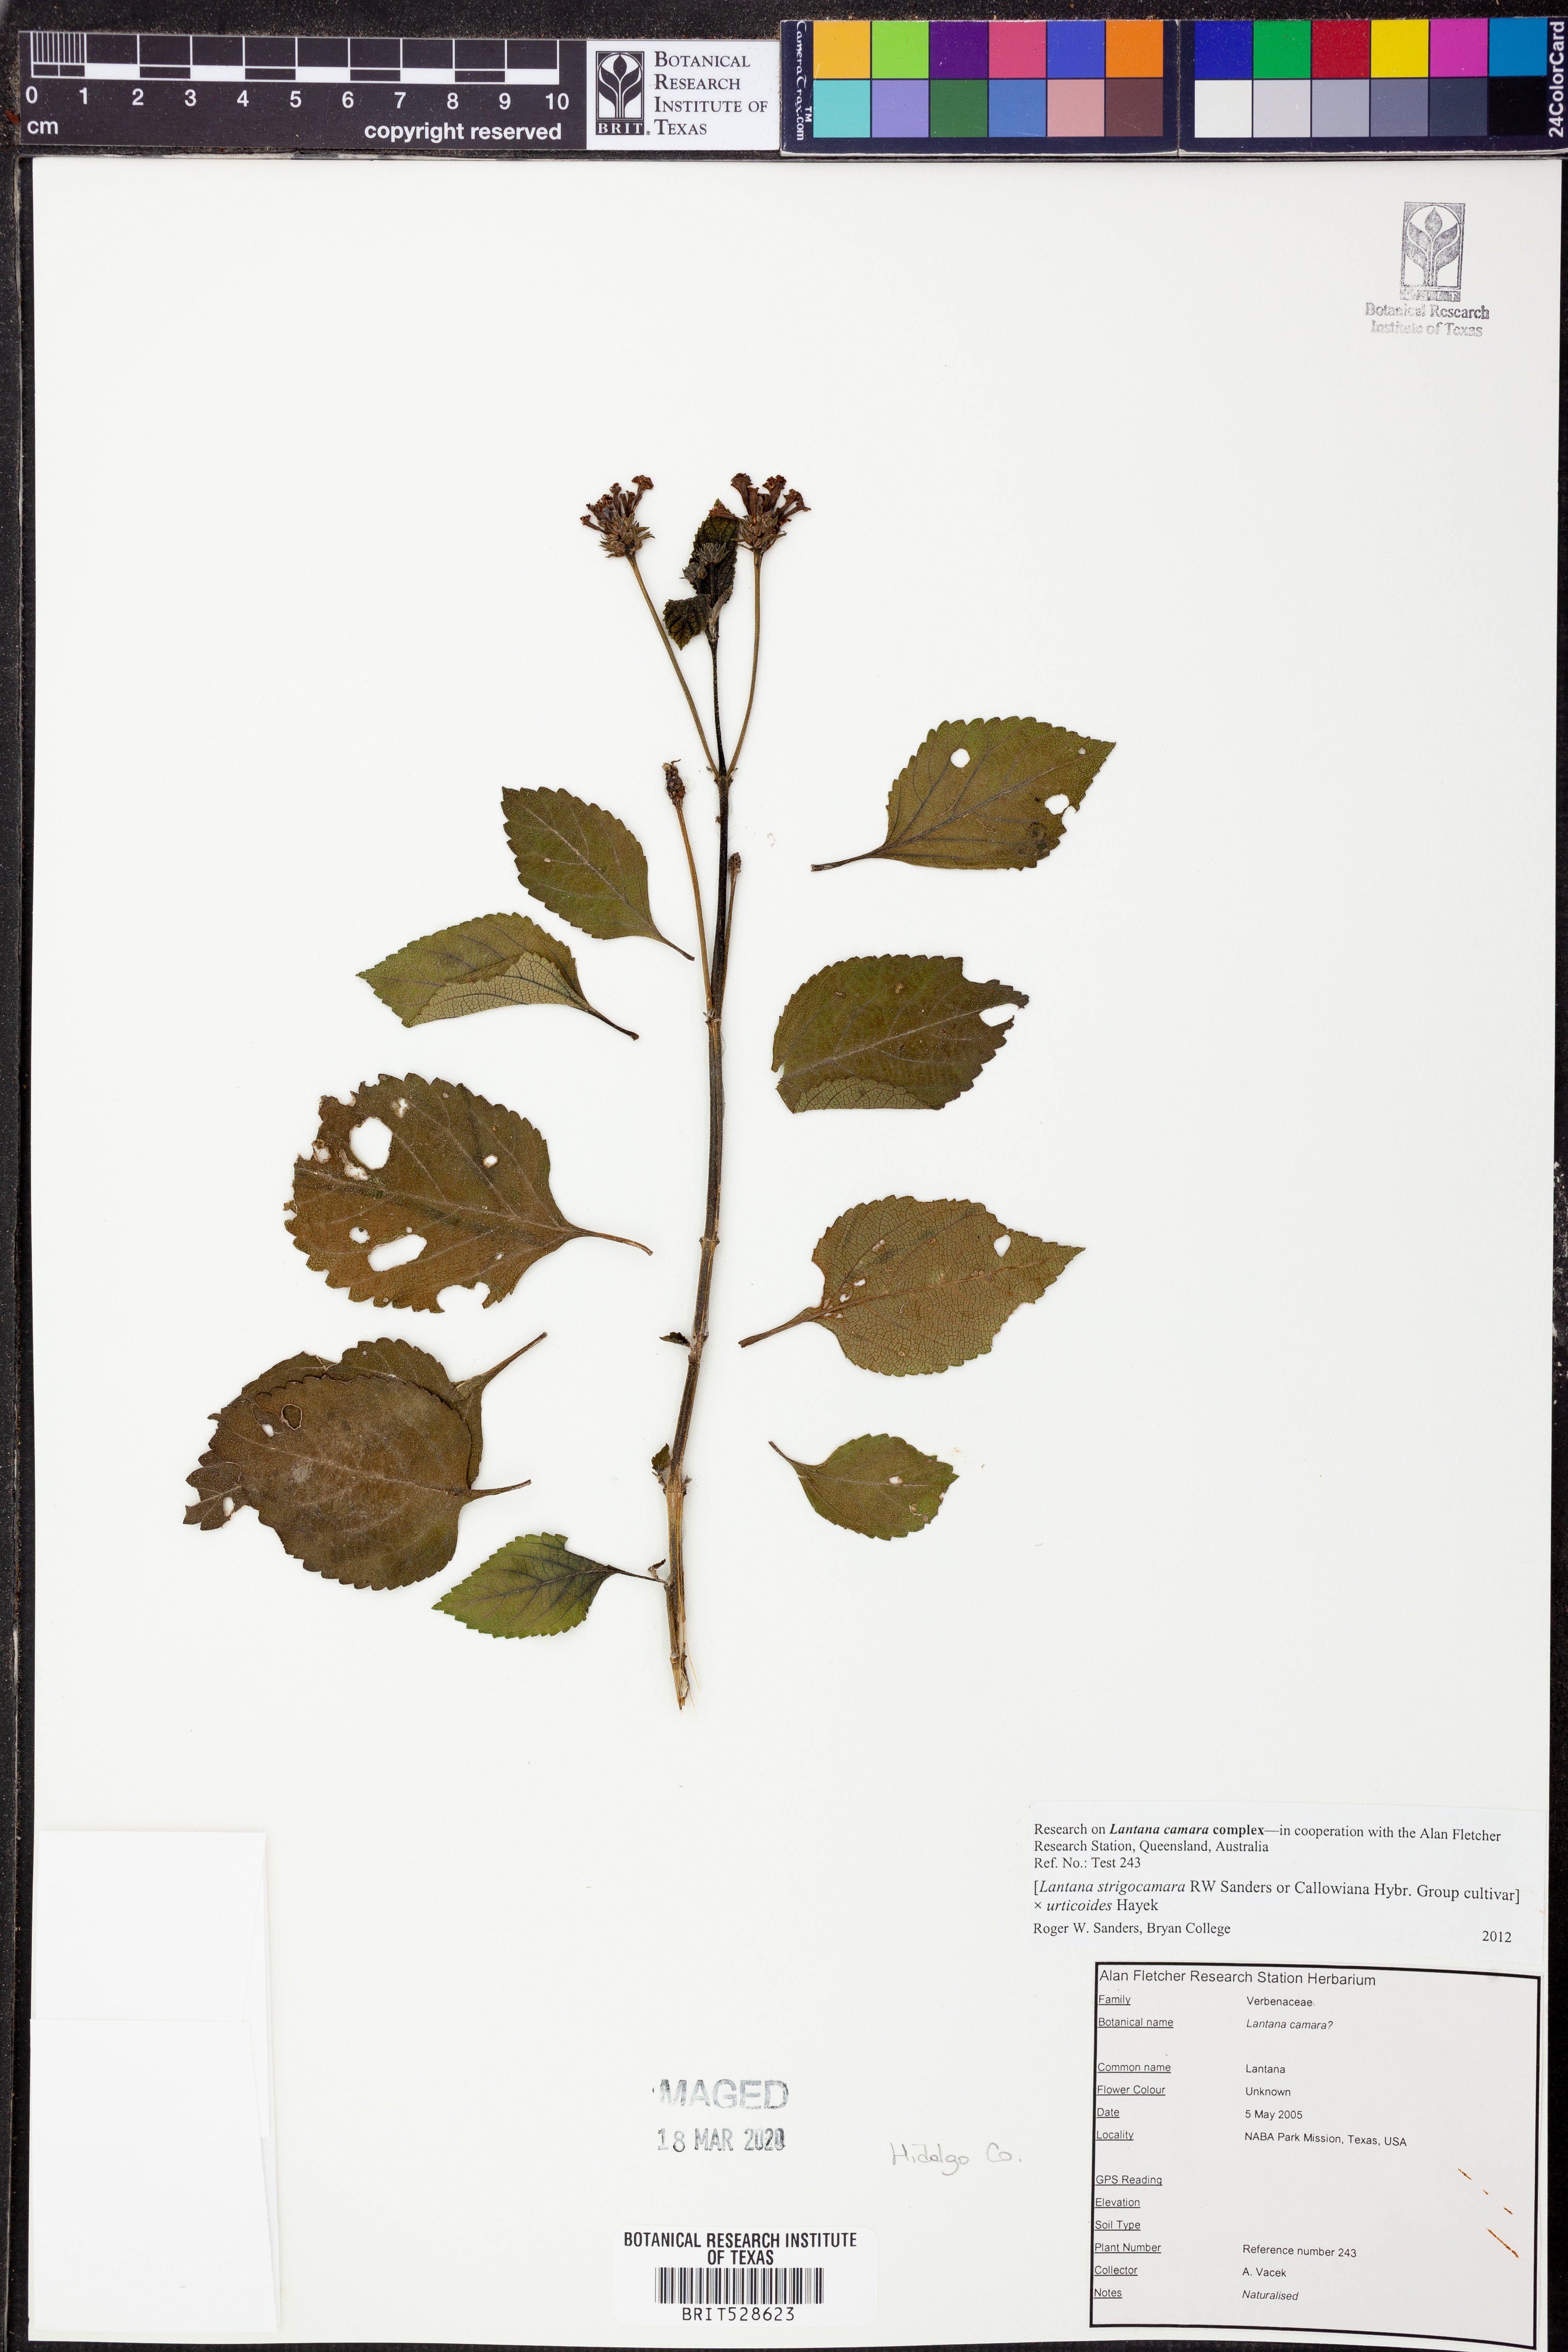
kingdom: Plantae
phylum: Tracheophyta
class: Magnoliopsida
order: Lamiales
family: Verbenaceae
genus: Lantana
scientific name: Lantana strigocamara
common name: Lantana
